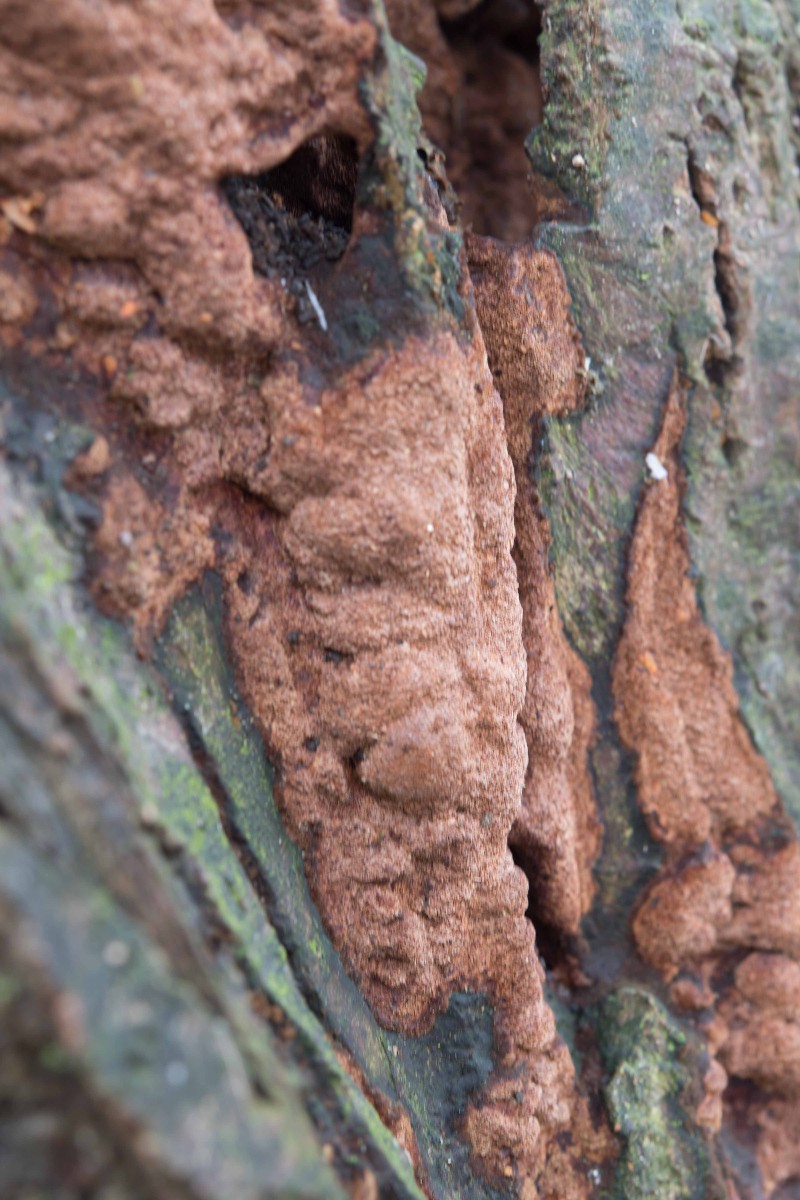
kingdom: Fungi
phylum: Basidiomycota
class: Agaricomycetes
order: Hymenochaetales
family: Hymenochaetaceae
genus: Fuscoporia
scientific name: Fuscoporia ferrea
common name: skorpe-ildporesvamp
